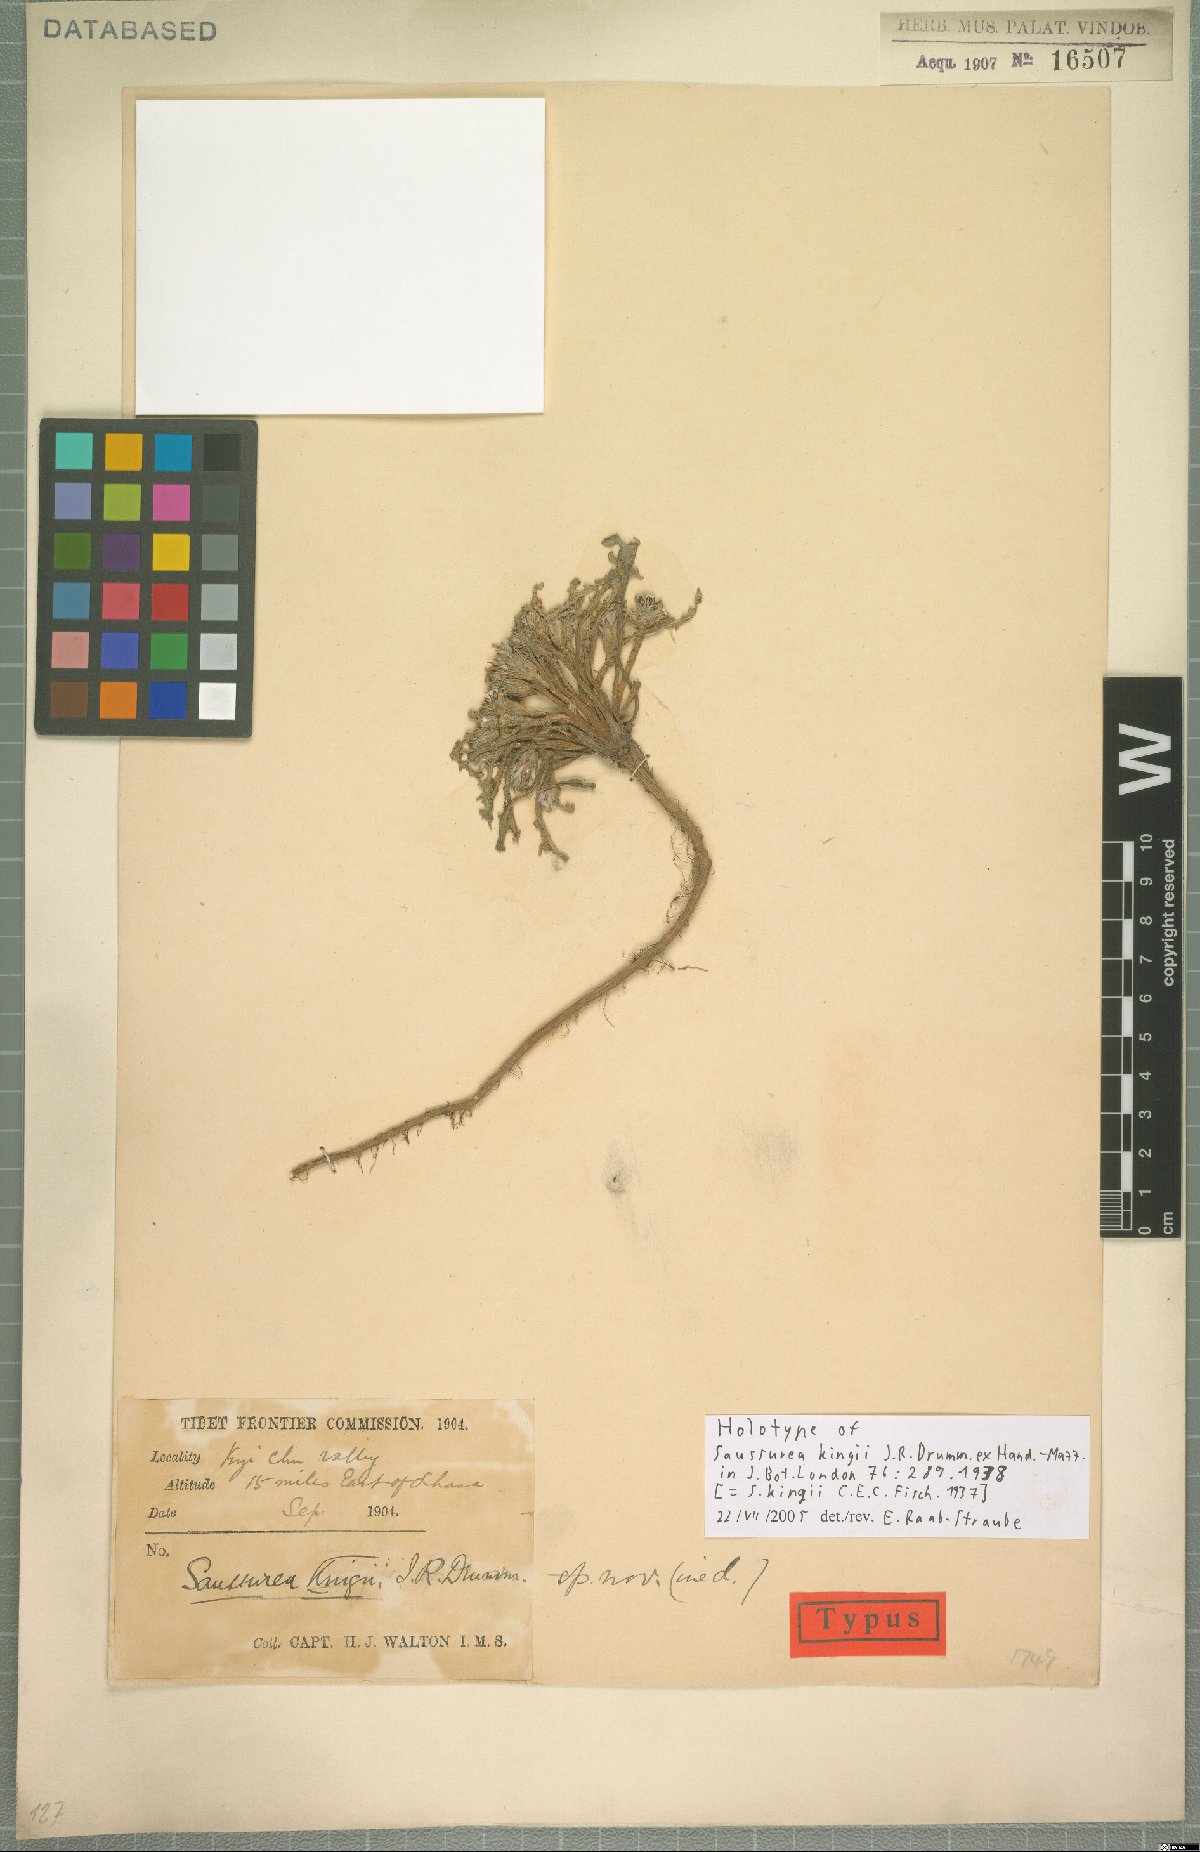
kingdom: Plantae
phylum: Tracheophyta
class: Magnoliopsida
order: Asterales
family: Asteraceae
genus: Saussurea
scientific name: Saussurea kingii
